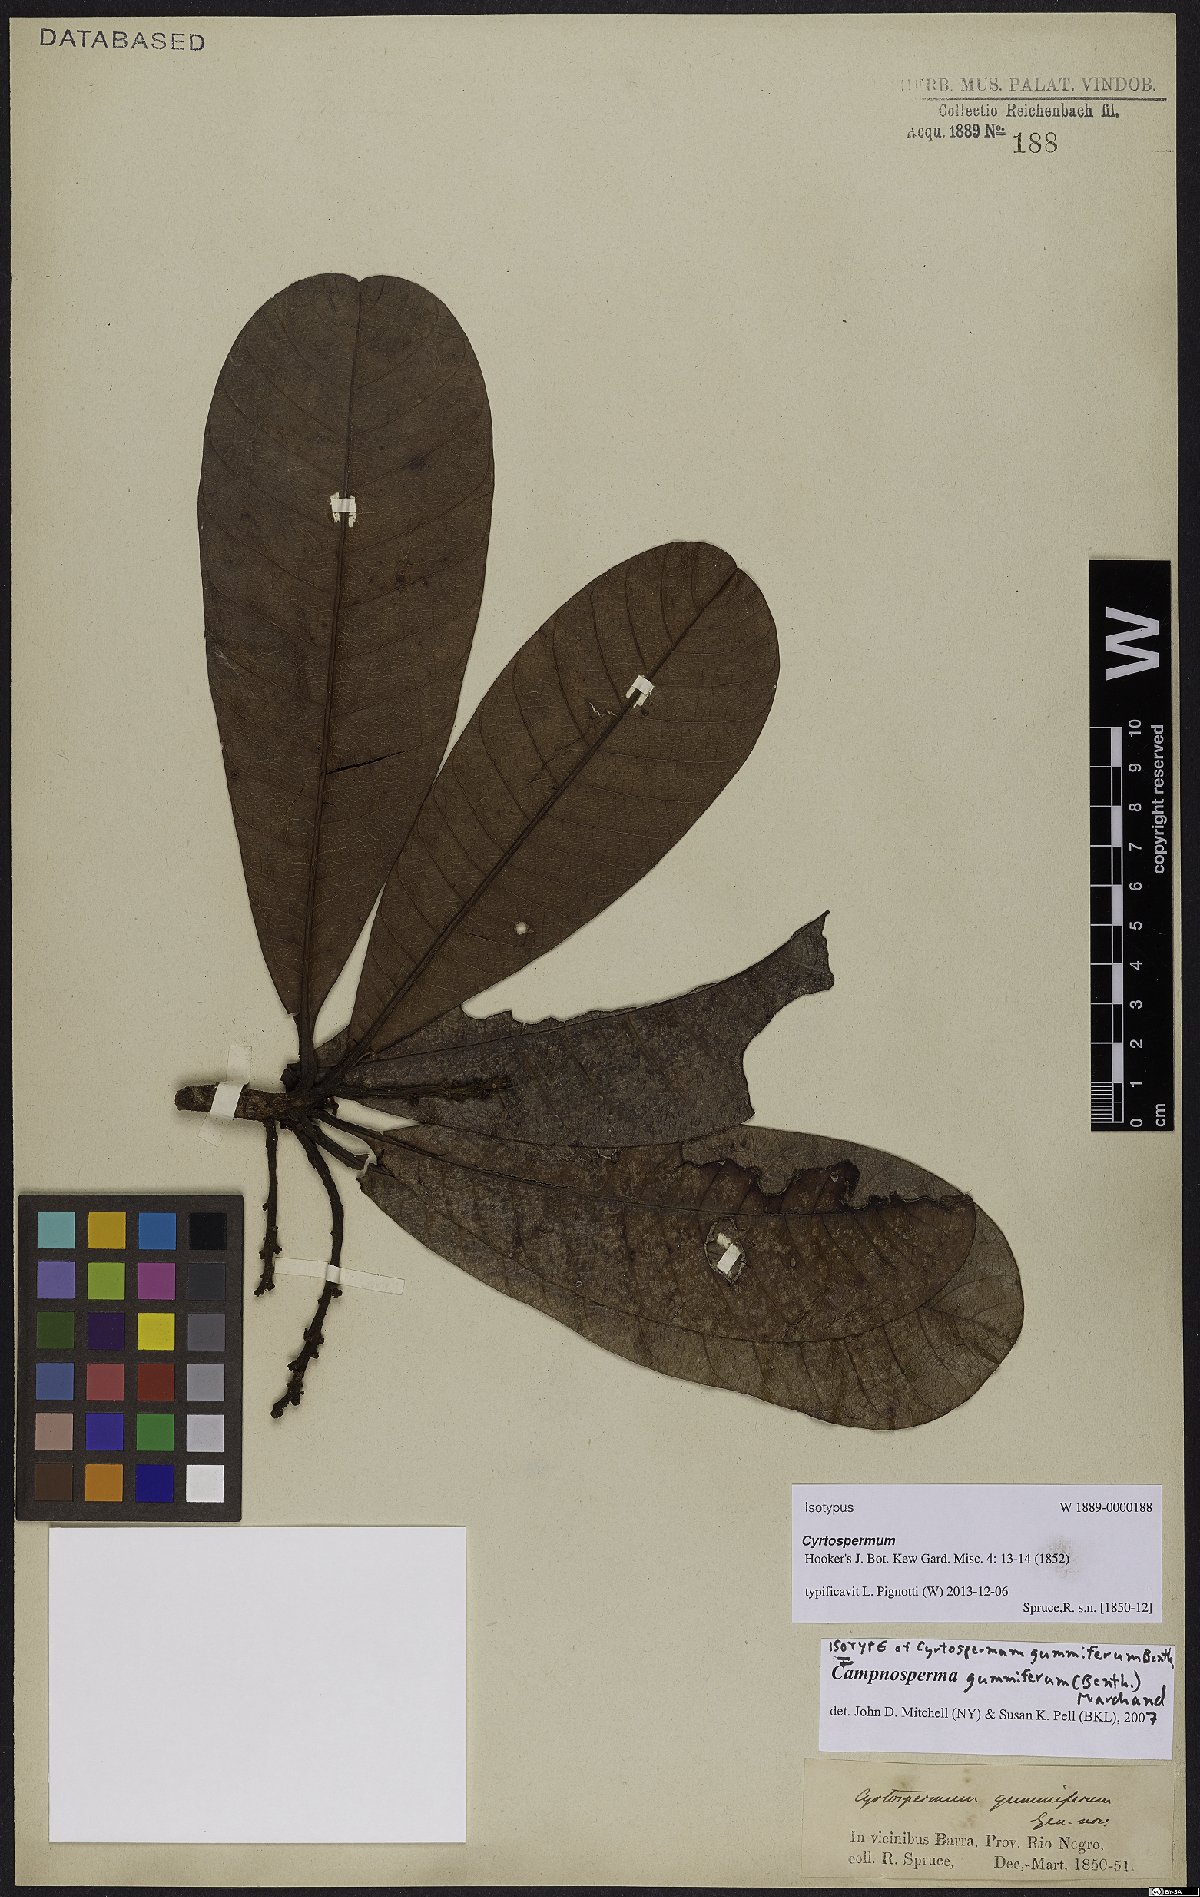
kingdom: Plantae
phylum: Tracheophyta
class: Magnoliopsida
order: Sapindales
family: Anacardiaceae
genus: Campnosperma
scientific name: Campnosperma gummifera
